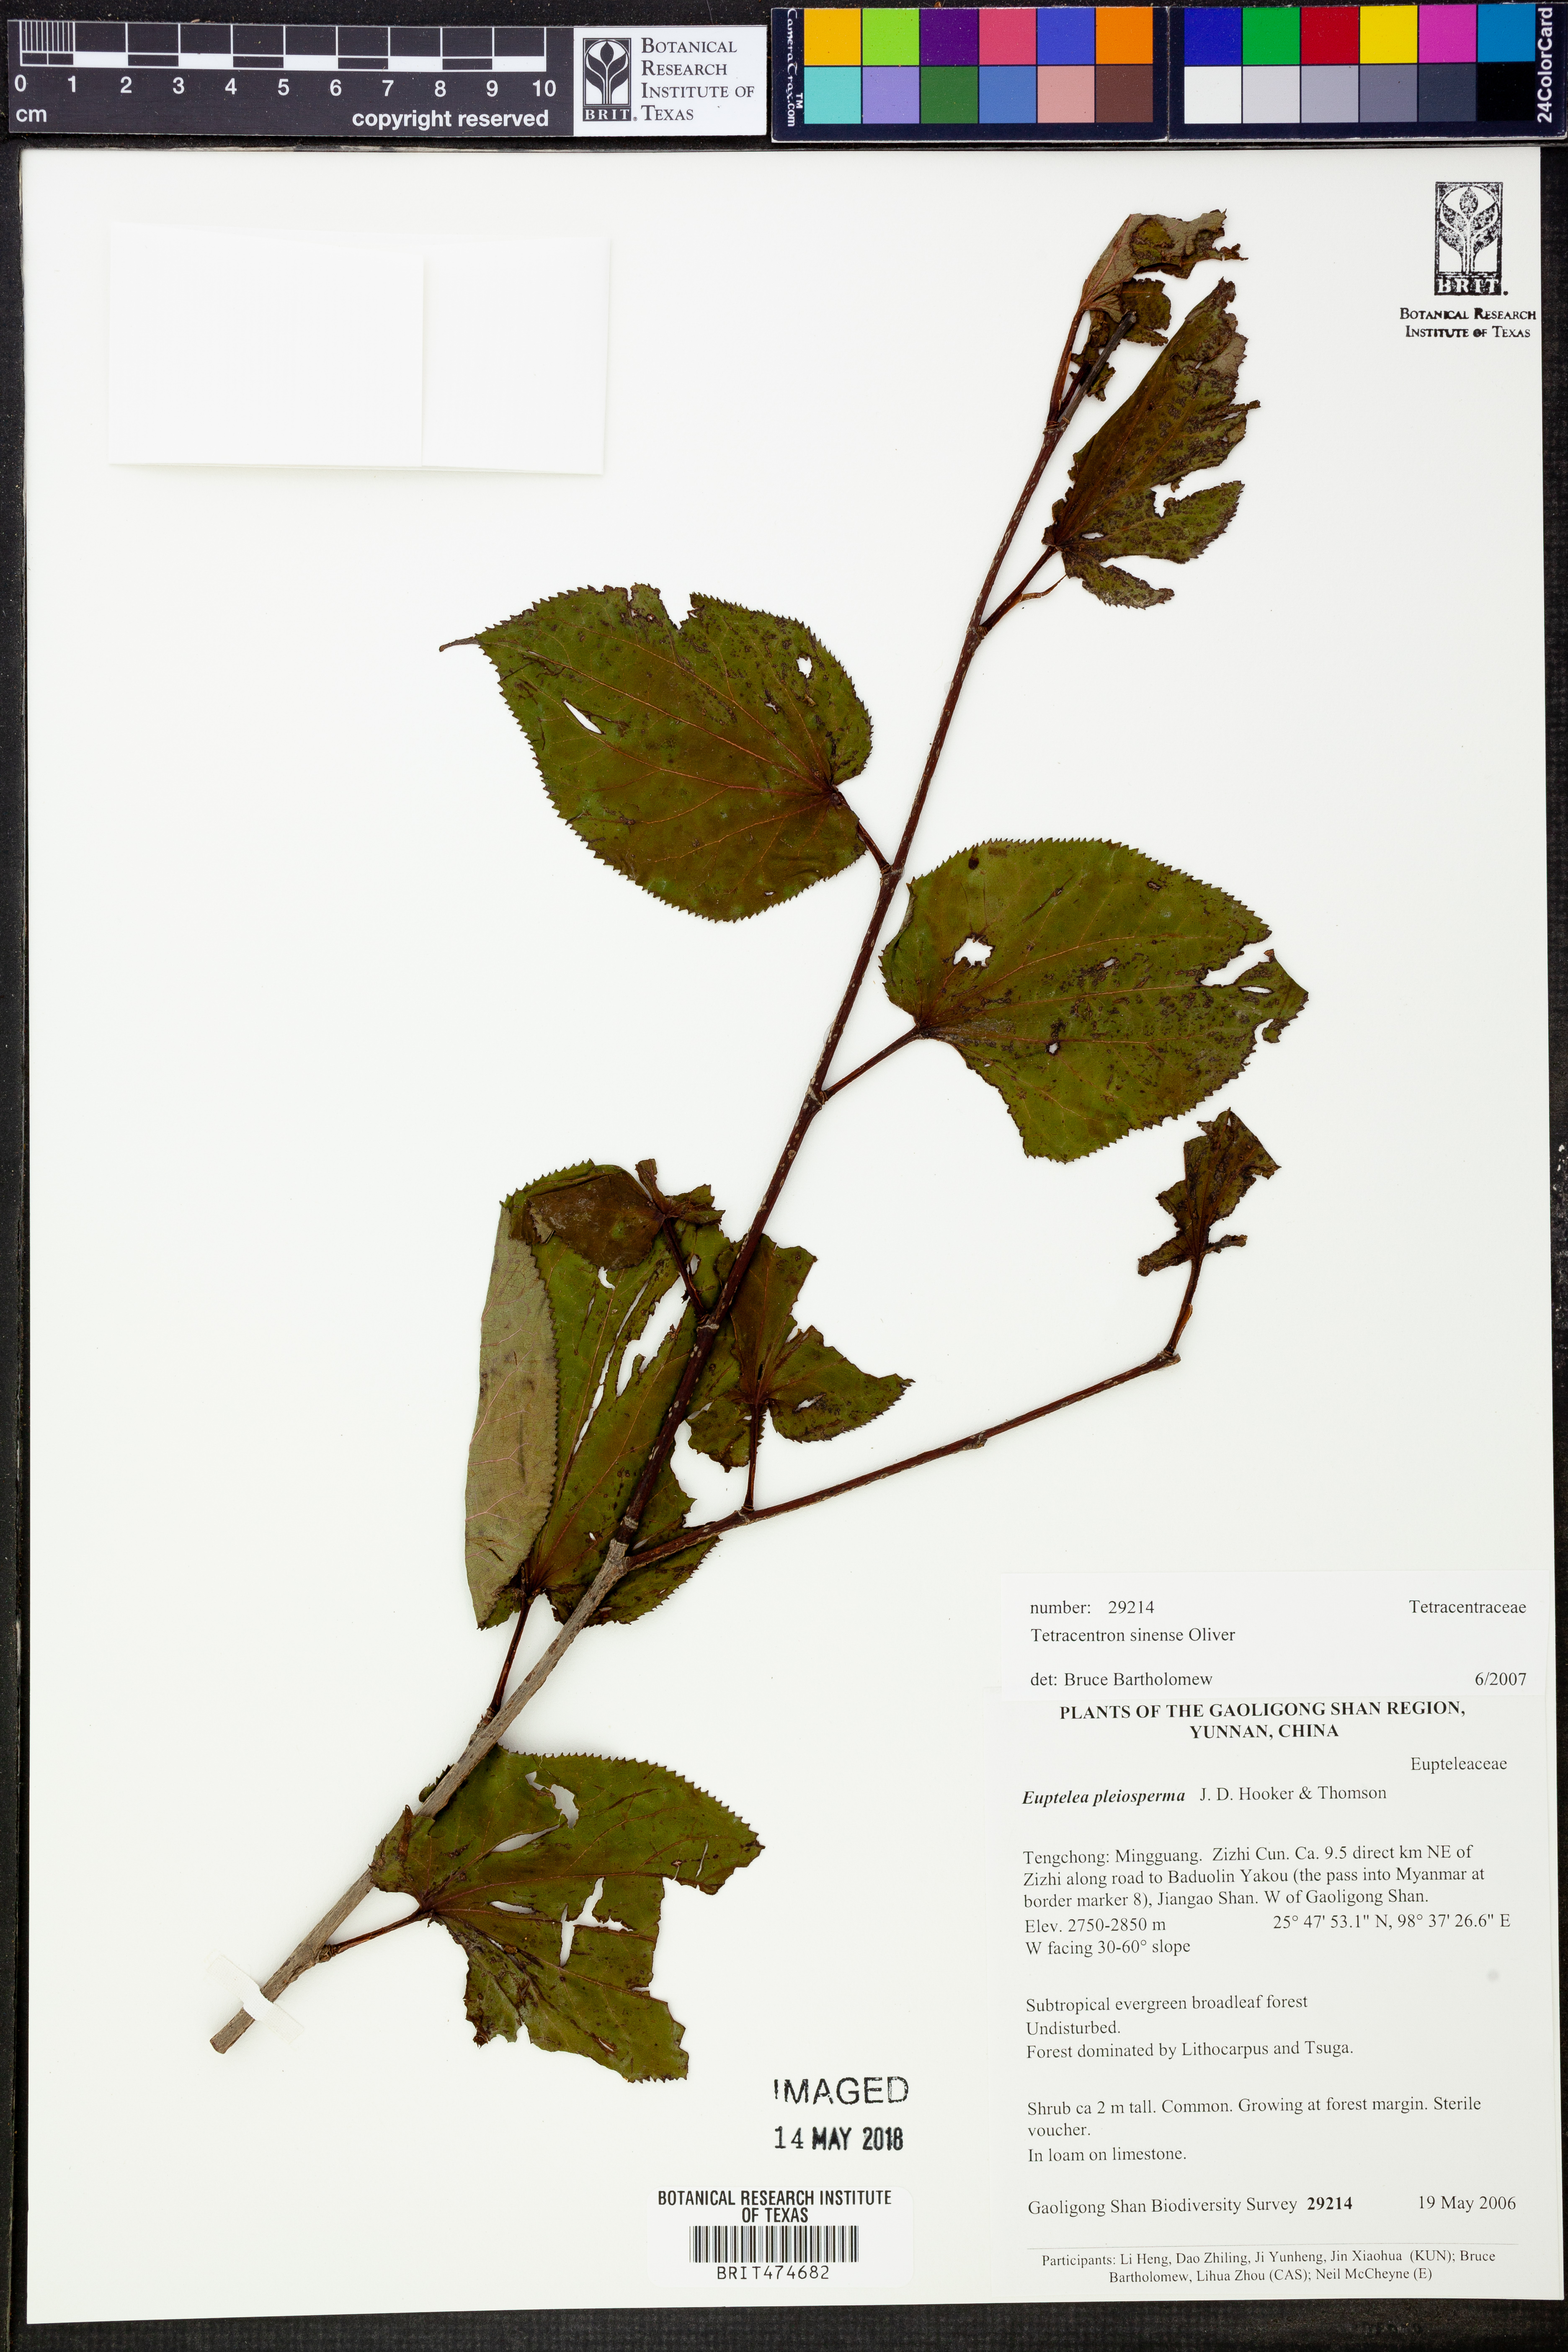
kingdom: Plantae
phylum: Tracheophyta
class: Magnoliopsida
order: Trochodendrales
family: Trochodendraceae
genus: Tetracentron
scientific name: Tetracentron sinense
